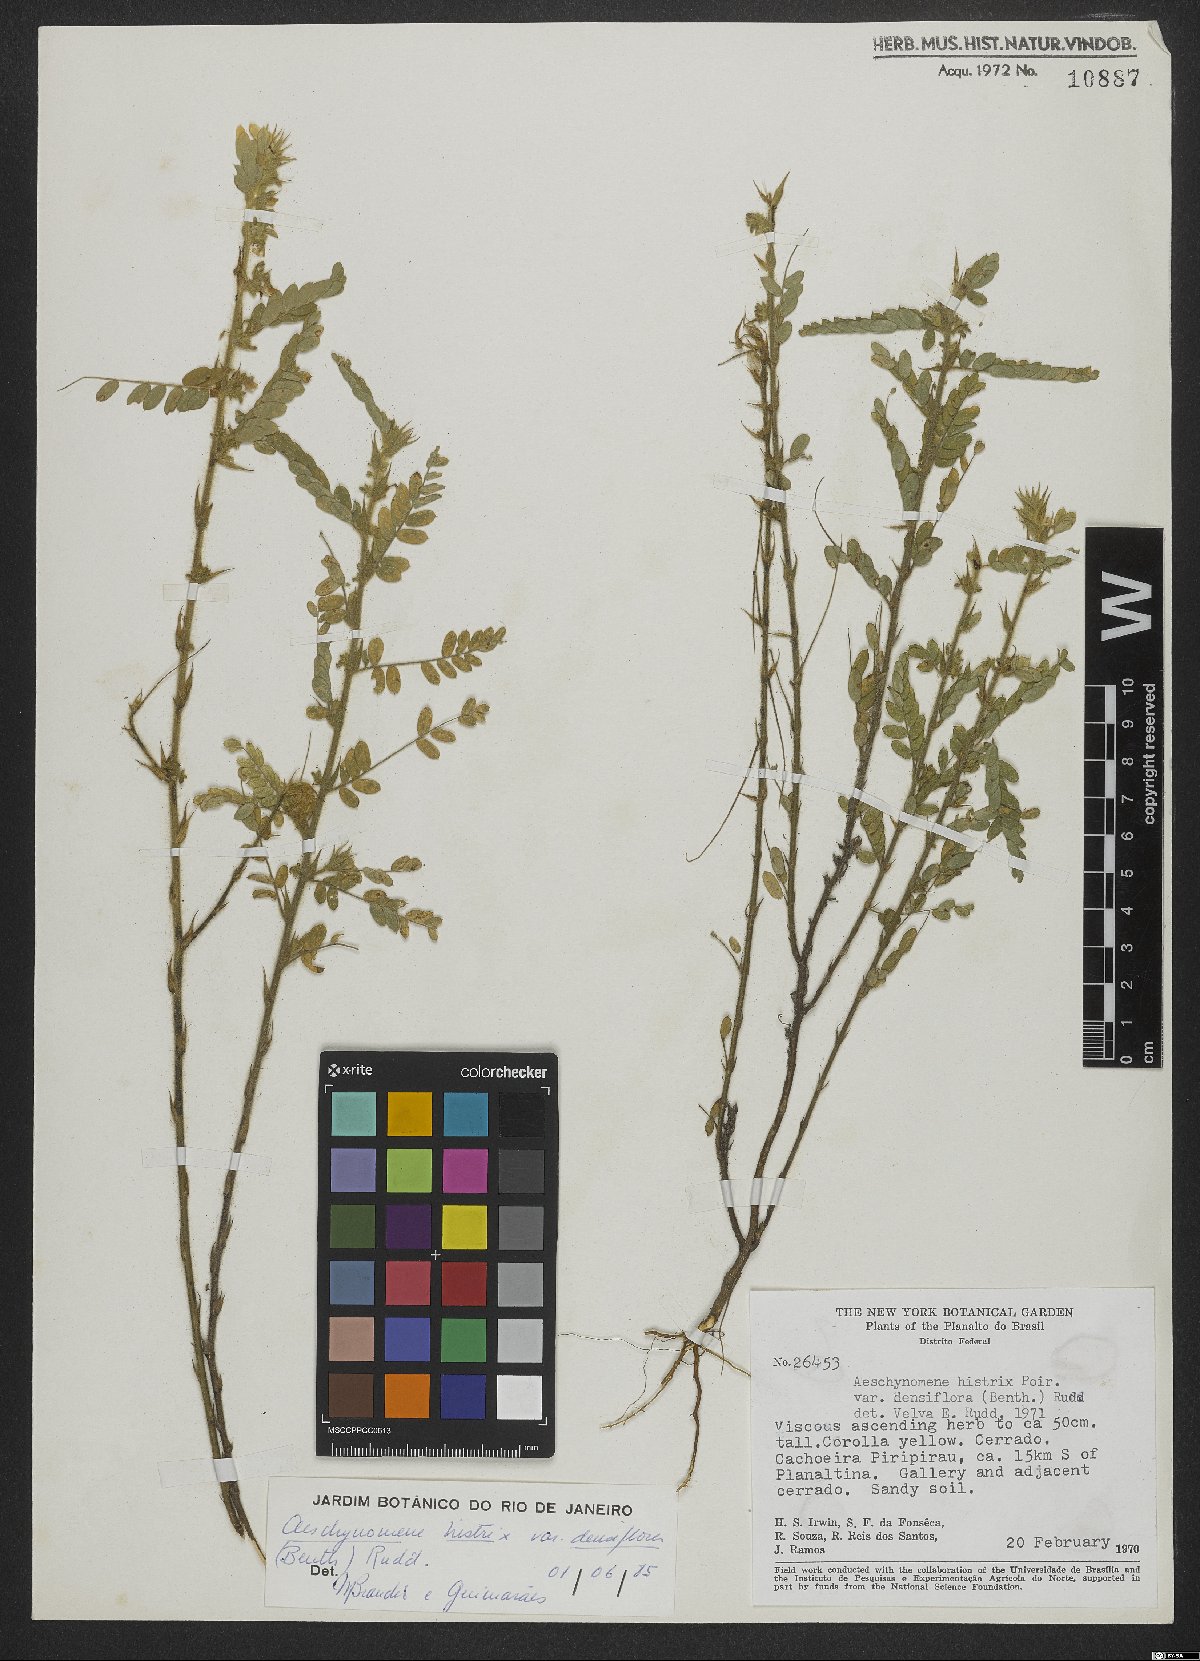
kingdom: Plantae
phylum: Tracheophyta
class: Magnoliopsida
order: Fabales
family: Fabaceae
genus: Ctenodon
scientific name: Ctenodon histrix
